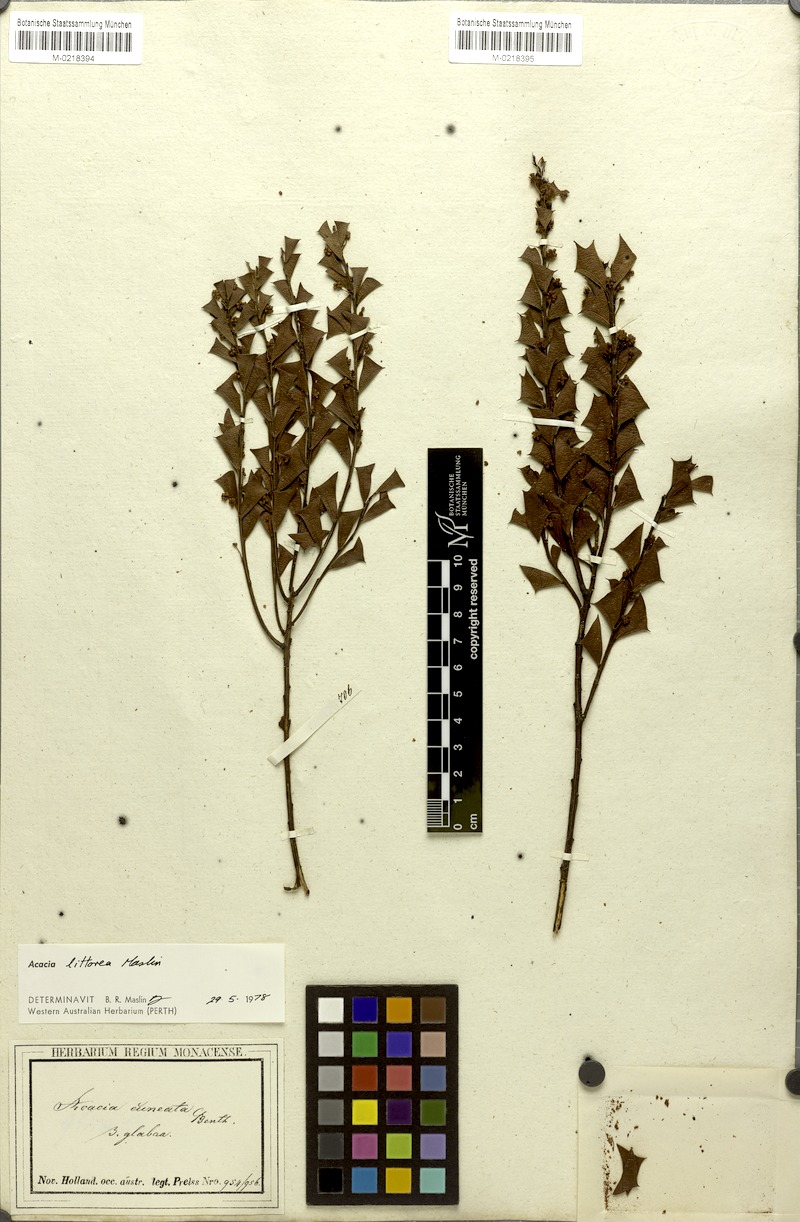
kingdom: Plantae
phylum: Tracheophyta
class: Magnoliopsida
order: Fabales
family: Fabaceae
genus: Acacia
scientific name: Acacia trapezoidea
